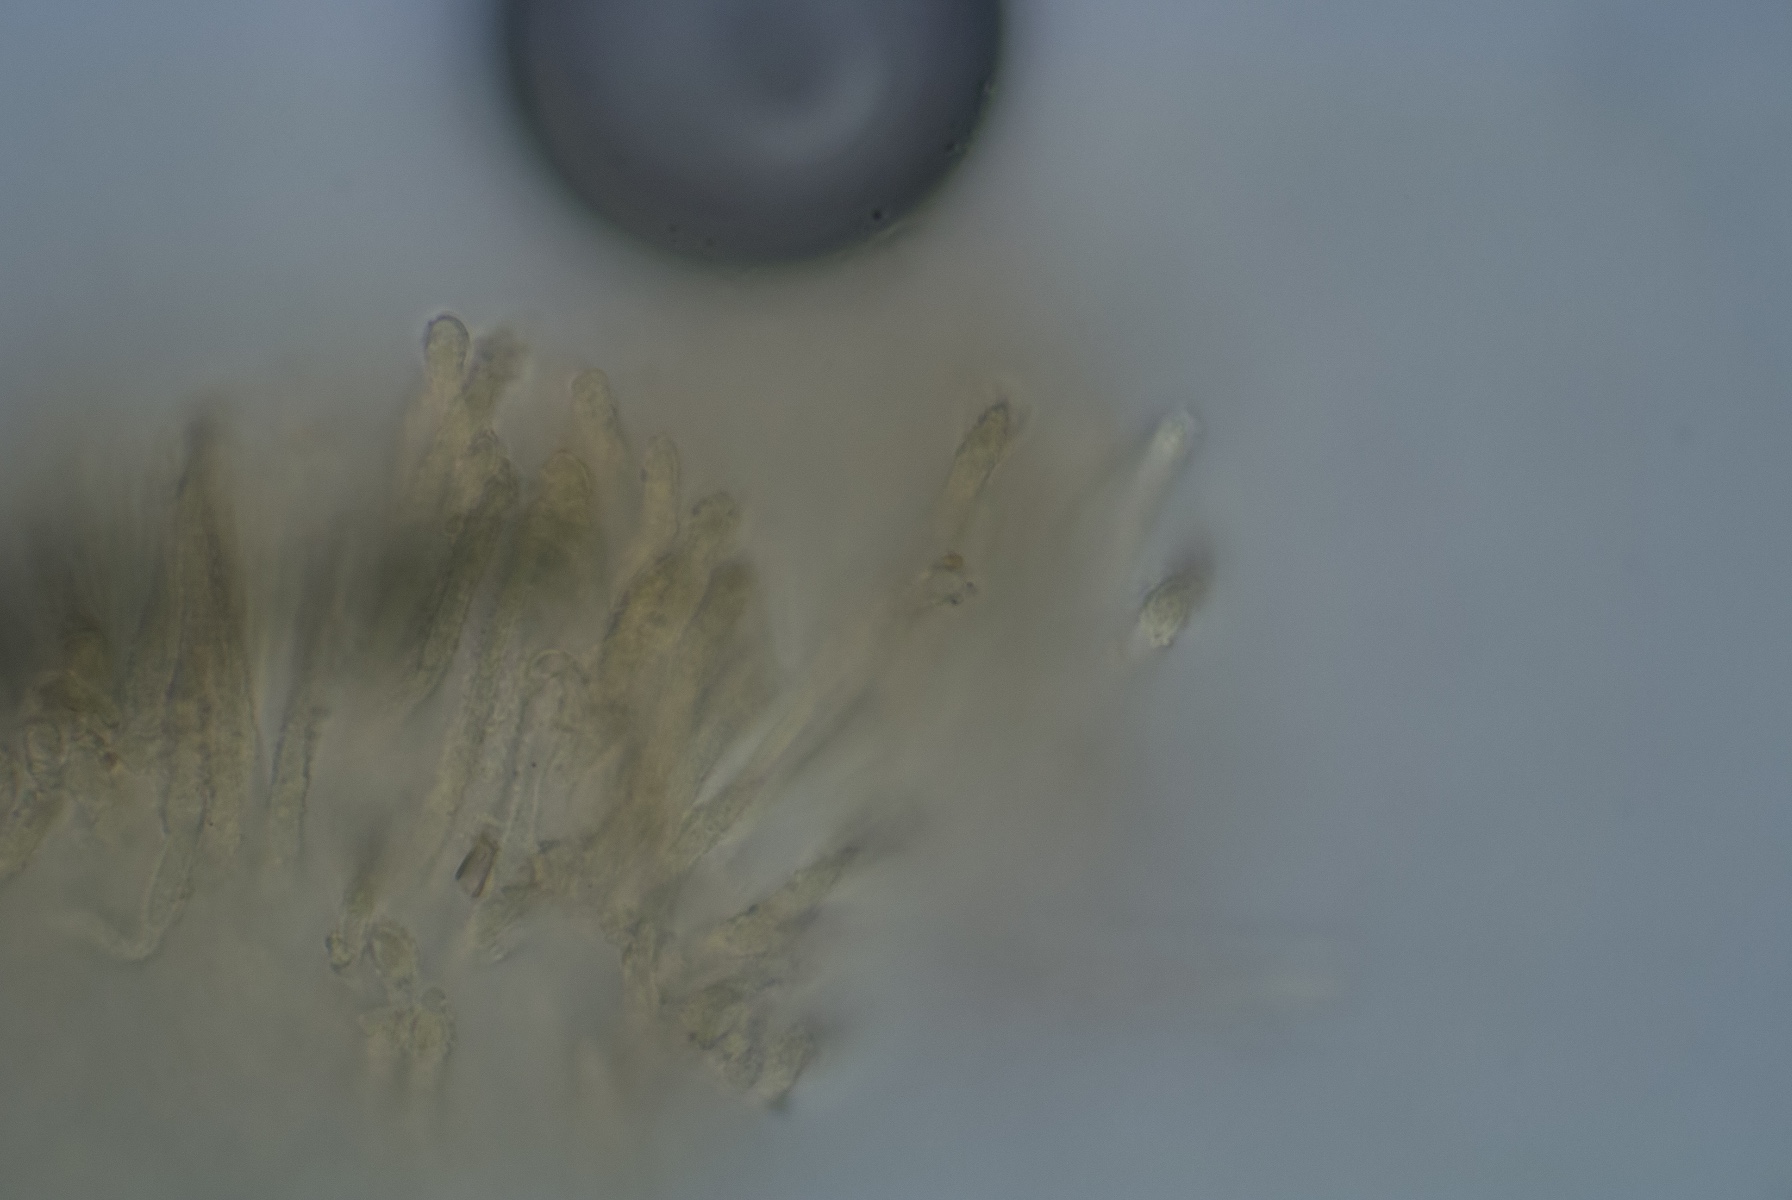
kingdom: Fungi
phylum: Ascomycota
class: Leotiomycetes
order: Helotiales
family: Lachnaceae
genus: Lachnum
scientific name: Lachnum impudicum
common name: vinter-frynseskive
